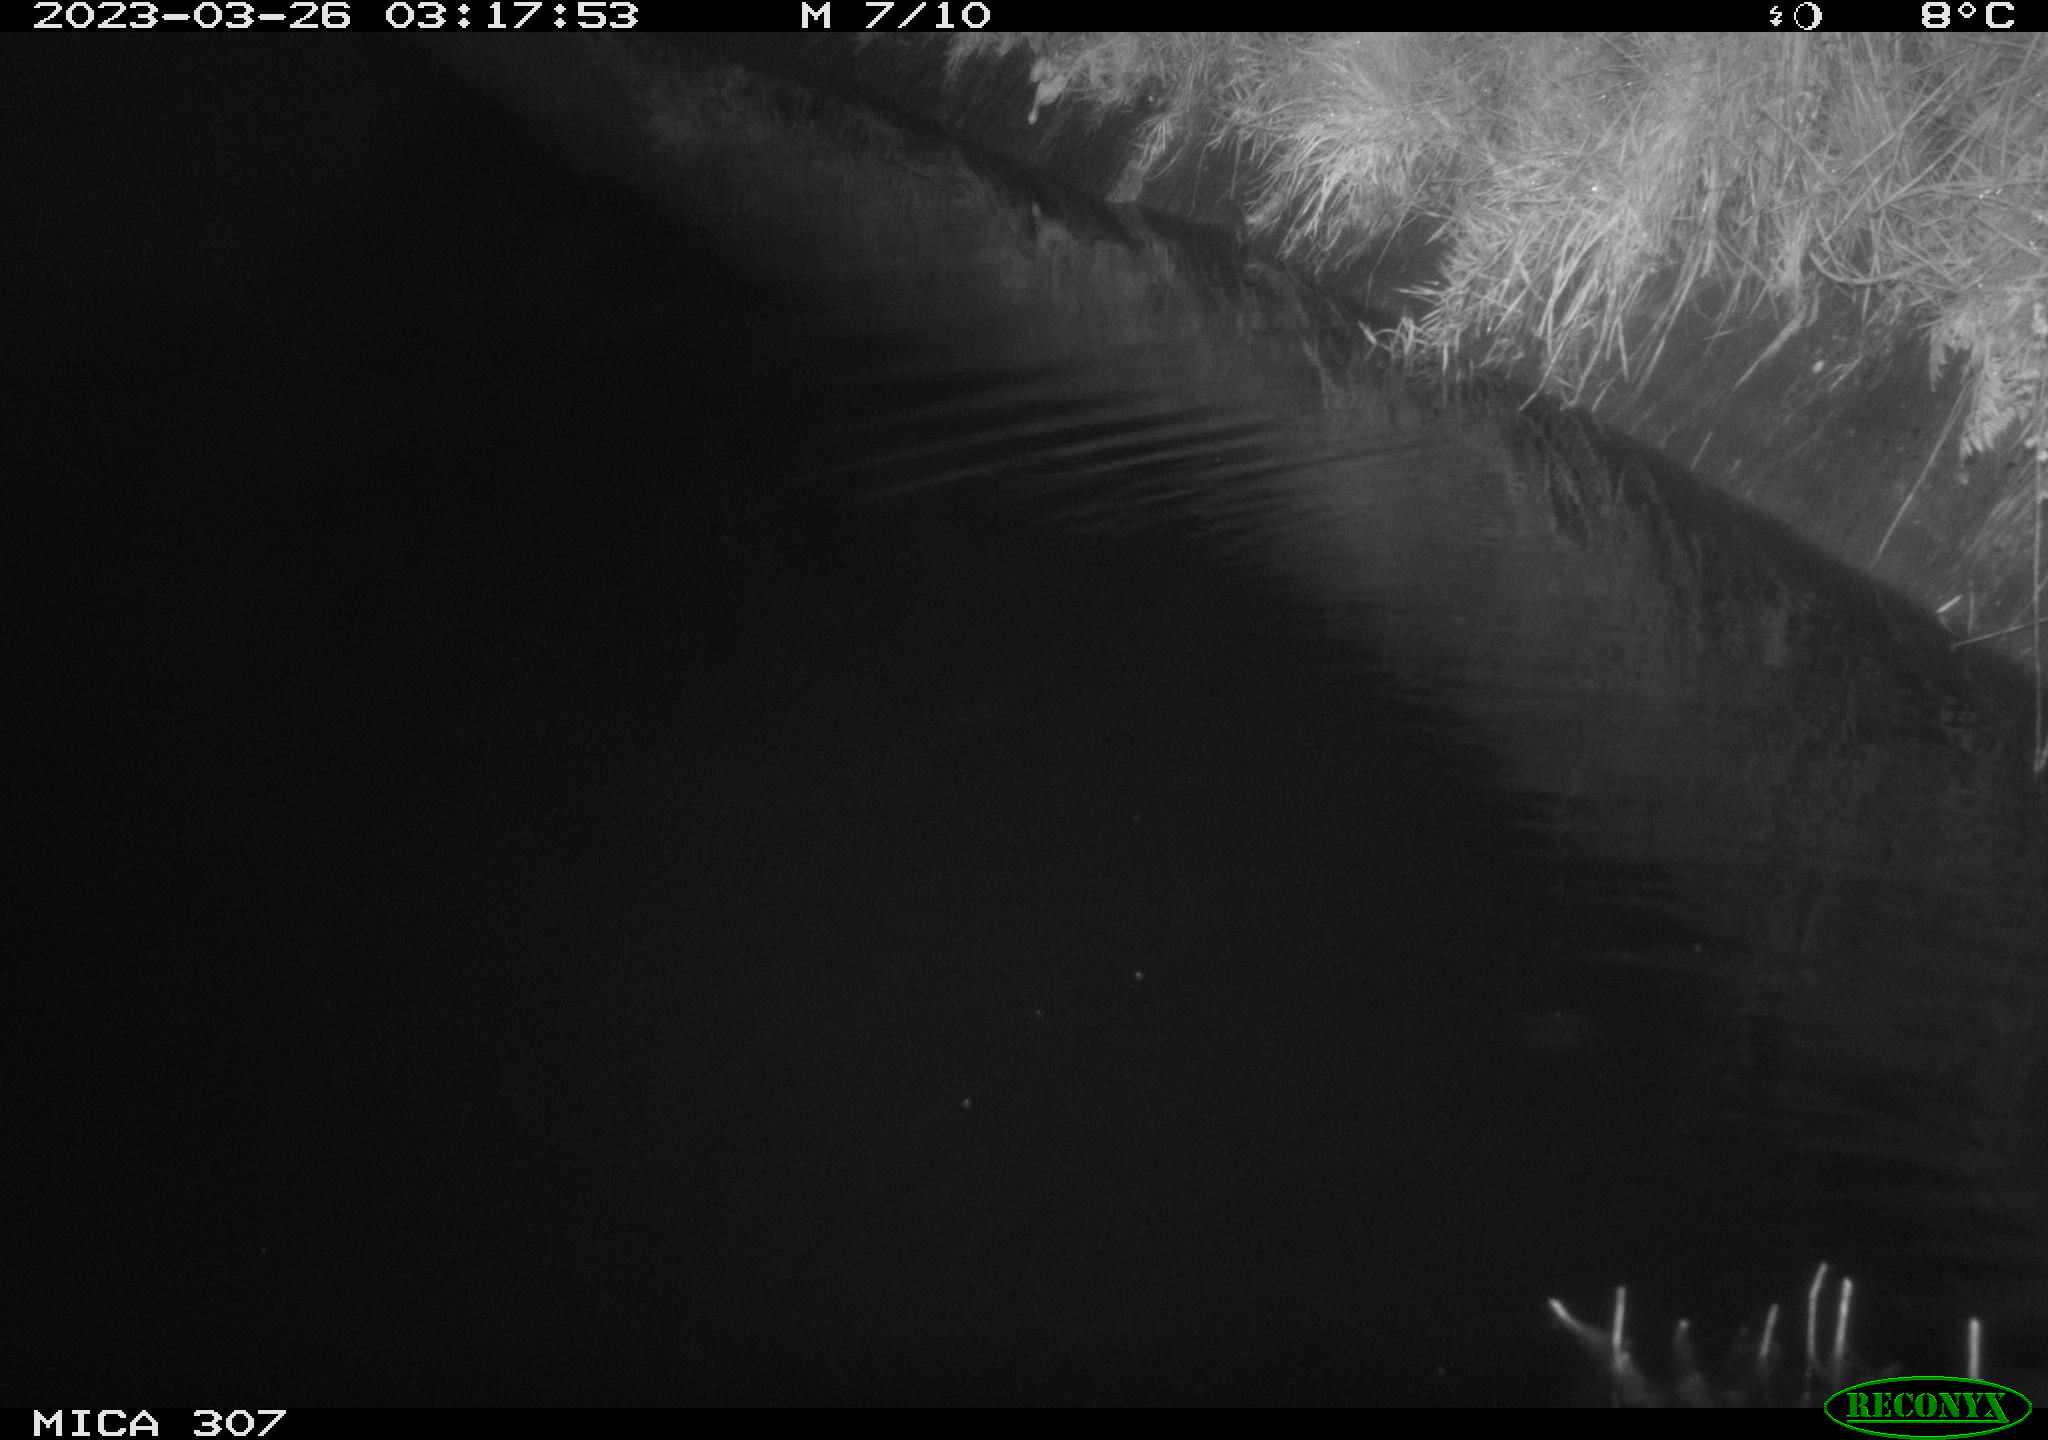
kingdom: Animalia
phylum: Chordata
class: Mammalia
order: Rodentia
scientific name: Rodentia
